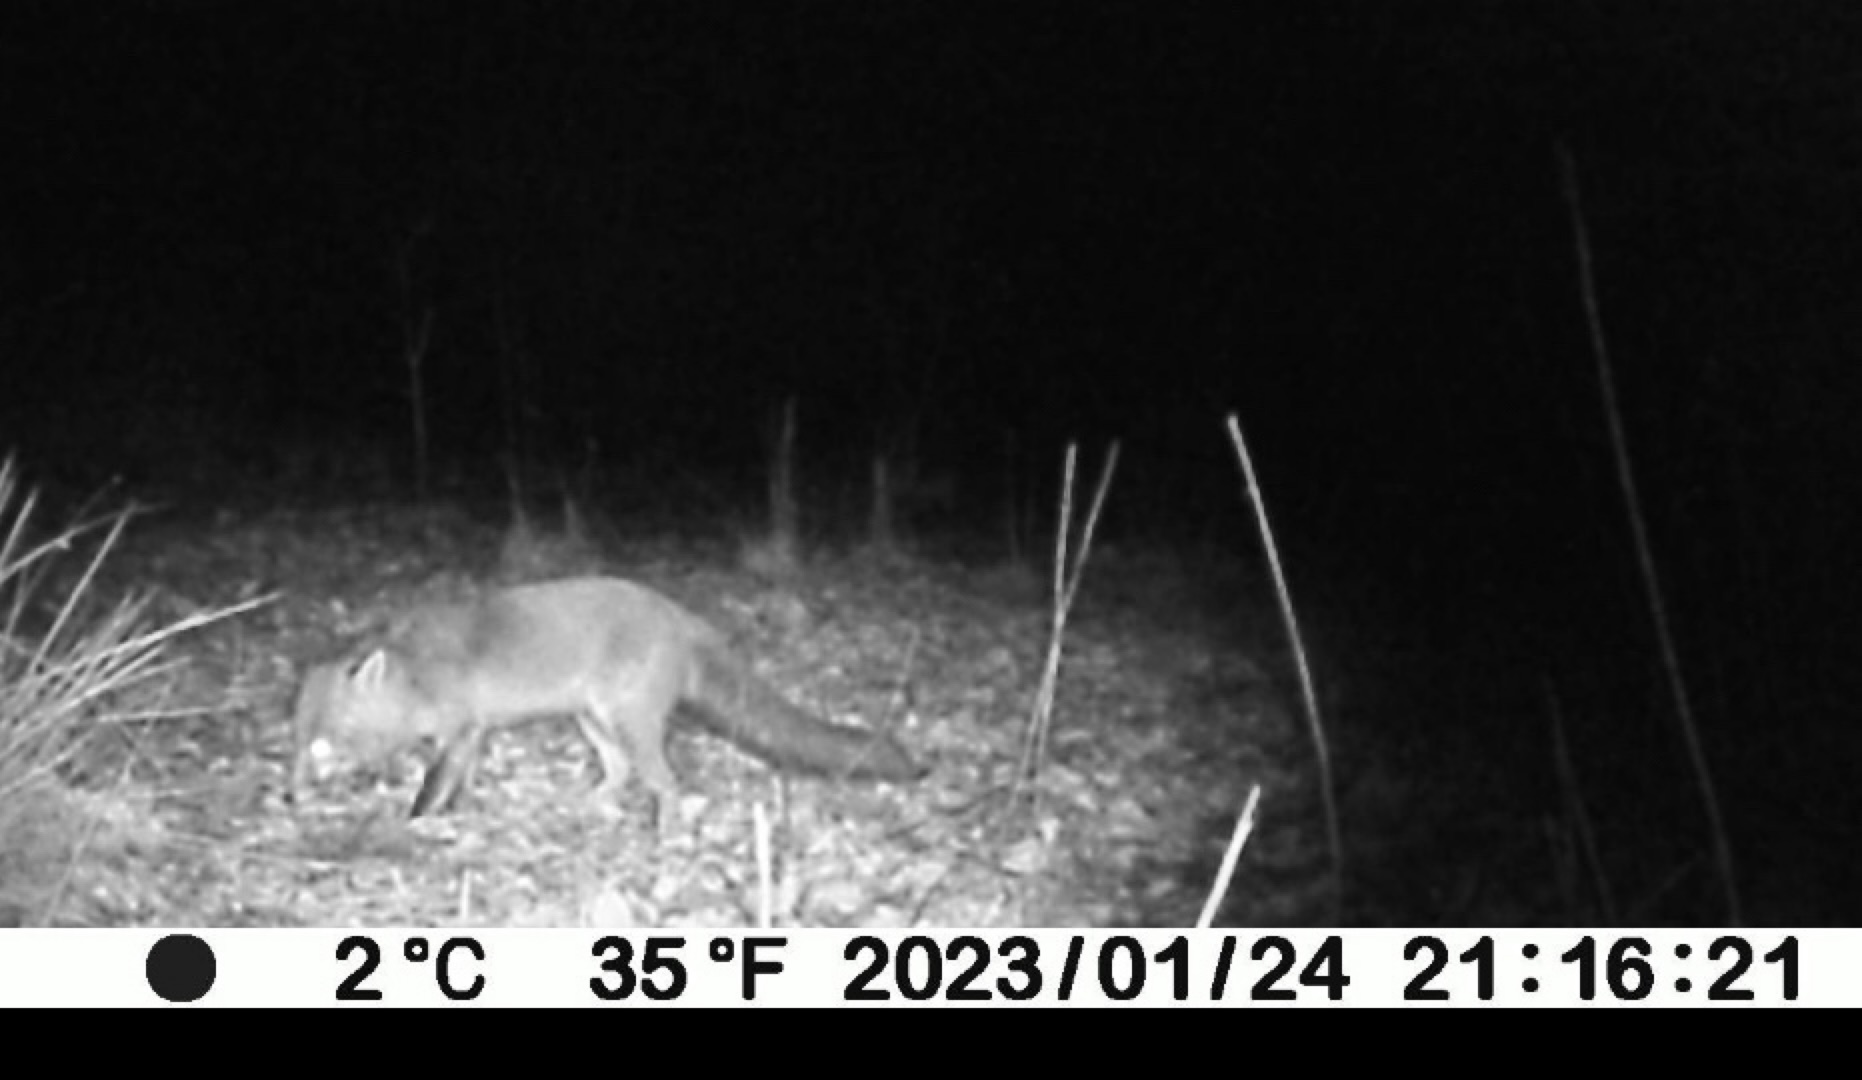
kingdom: Animalia
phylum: Chordata
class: Mammalia
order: Carnivora
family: Canidae
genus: Vulpes
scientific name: Vulpes vulpes
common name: Ræv
